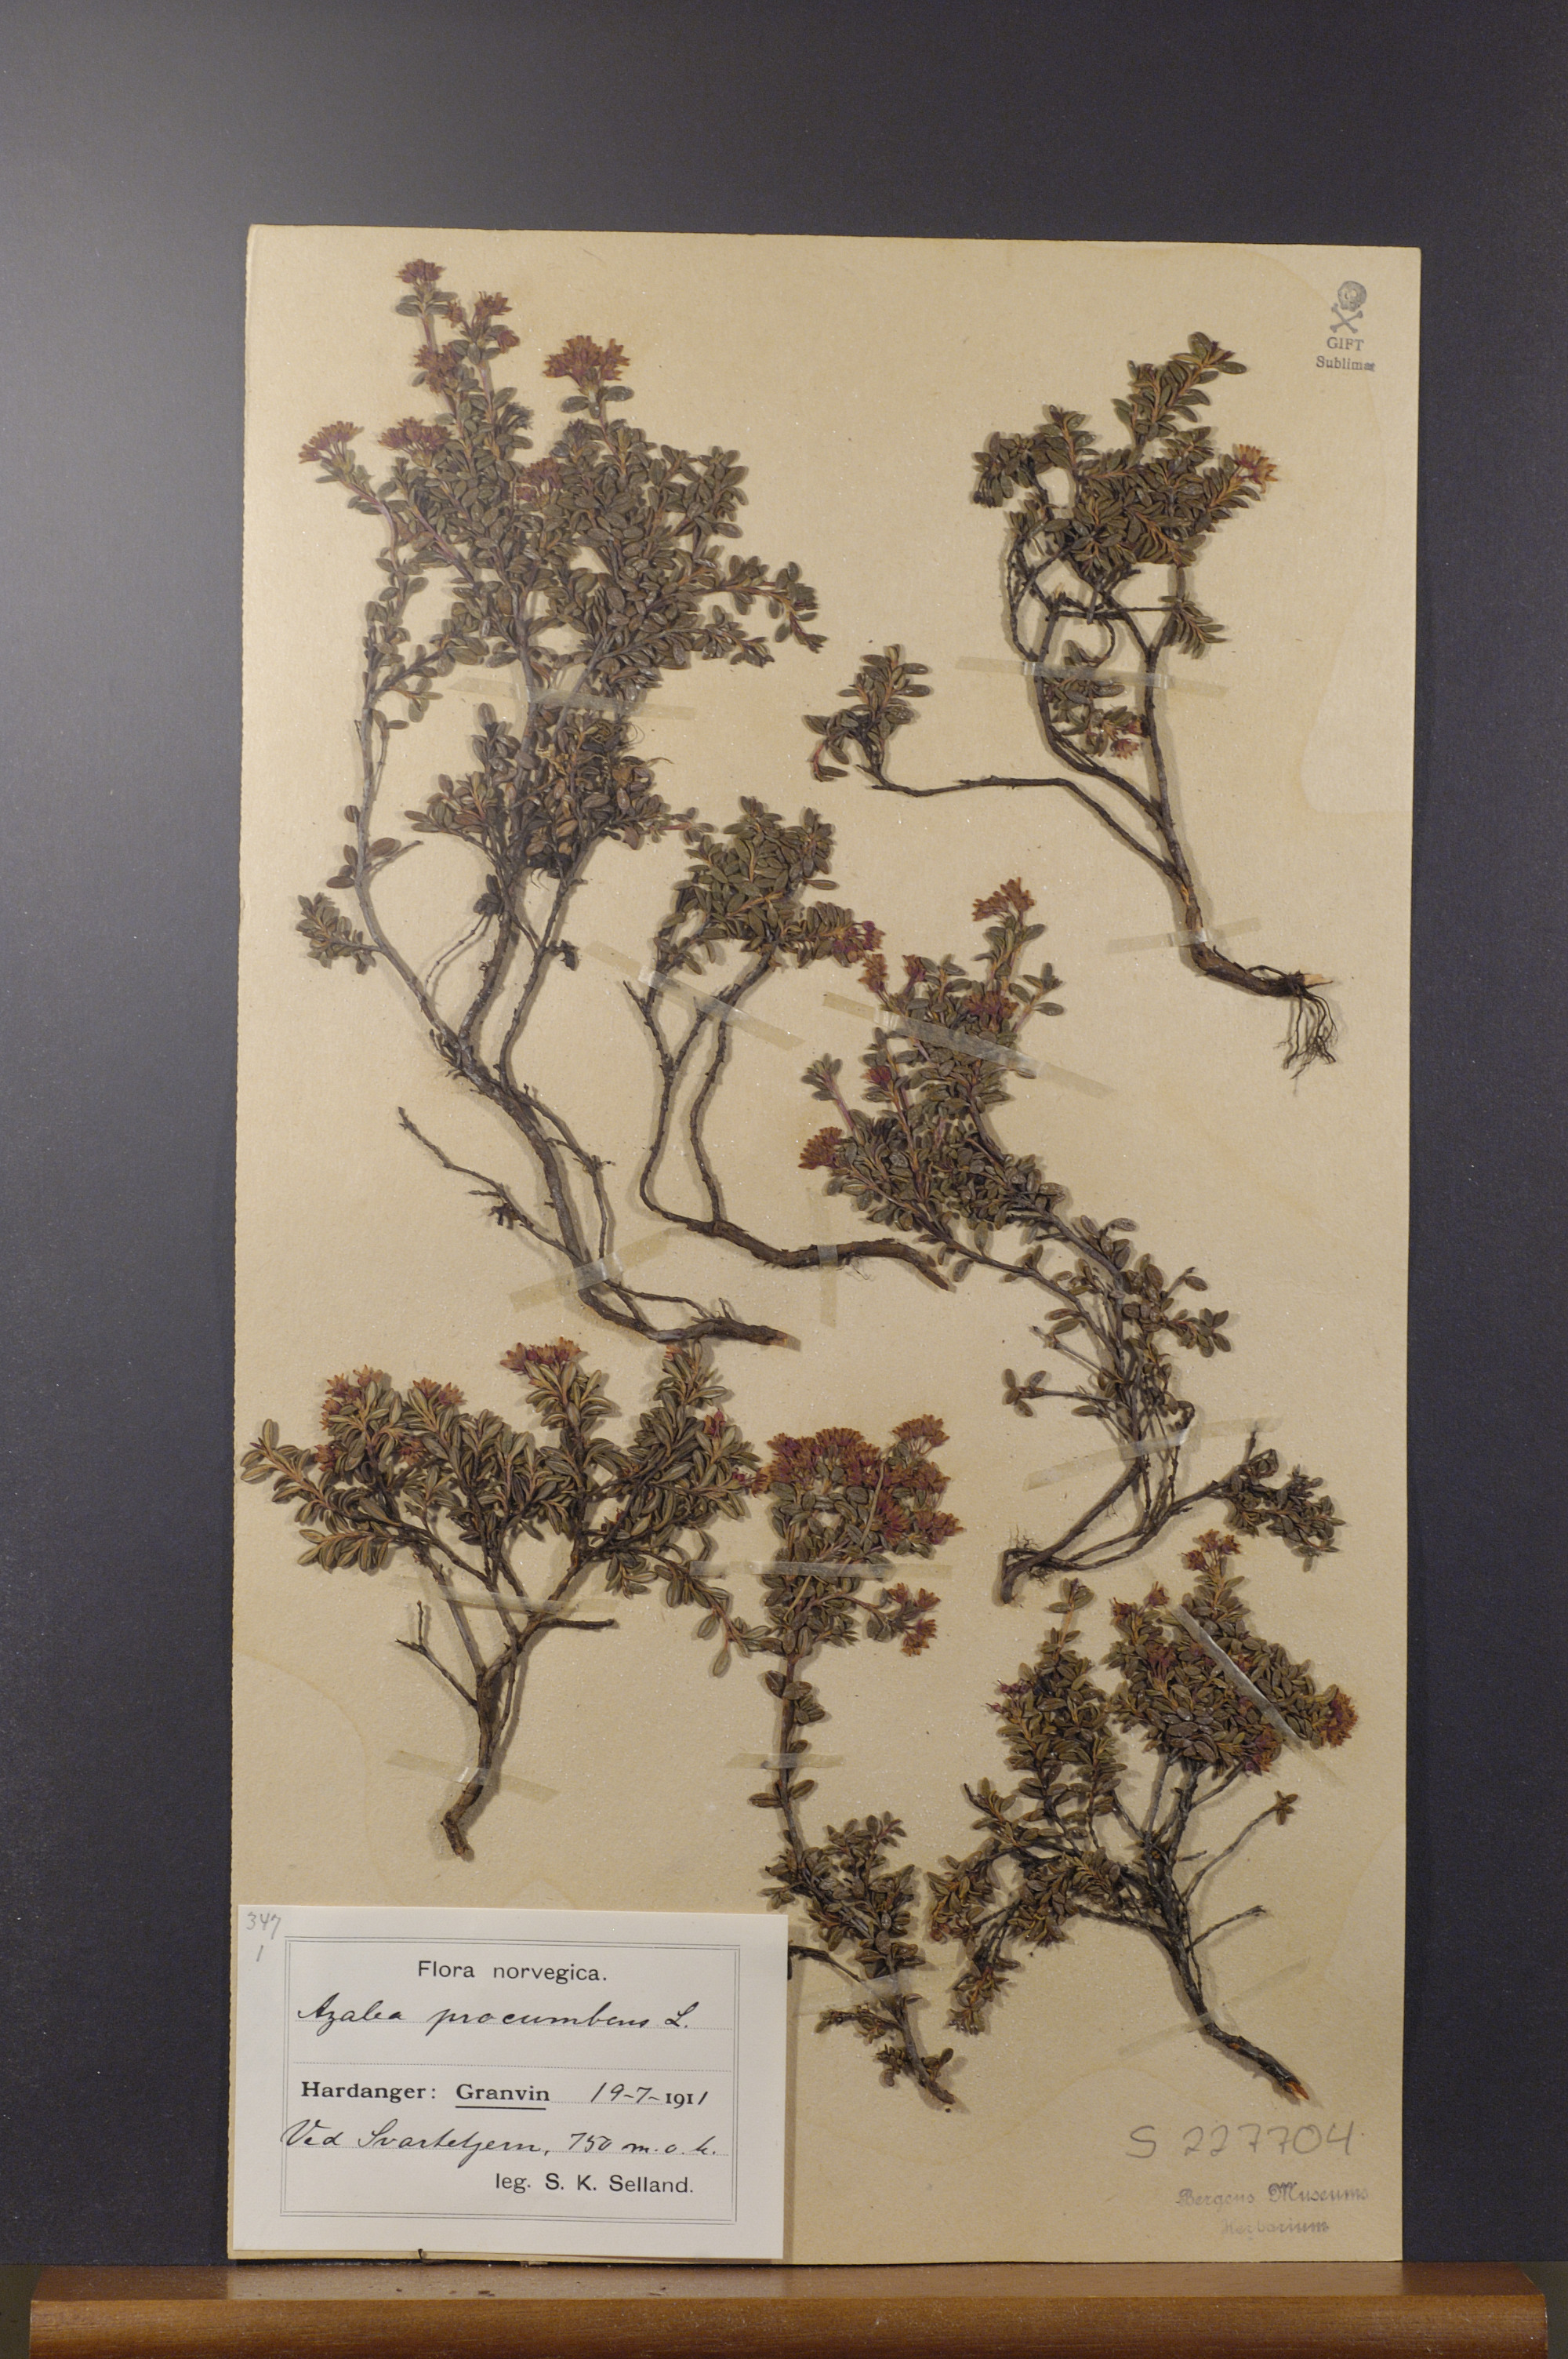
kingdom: Plantae
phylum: Tracheophyta
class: Magnoliopsida
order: Ericales
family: Ericaceae
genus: Kalmia
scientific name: Kalmia procumbens
